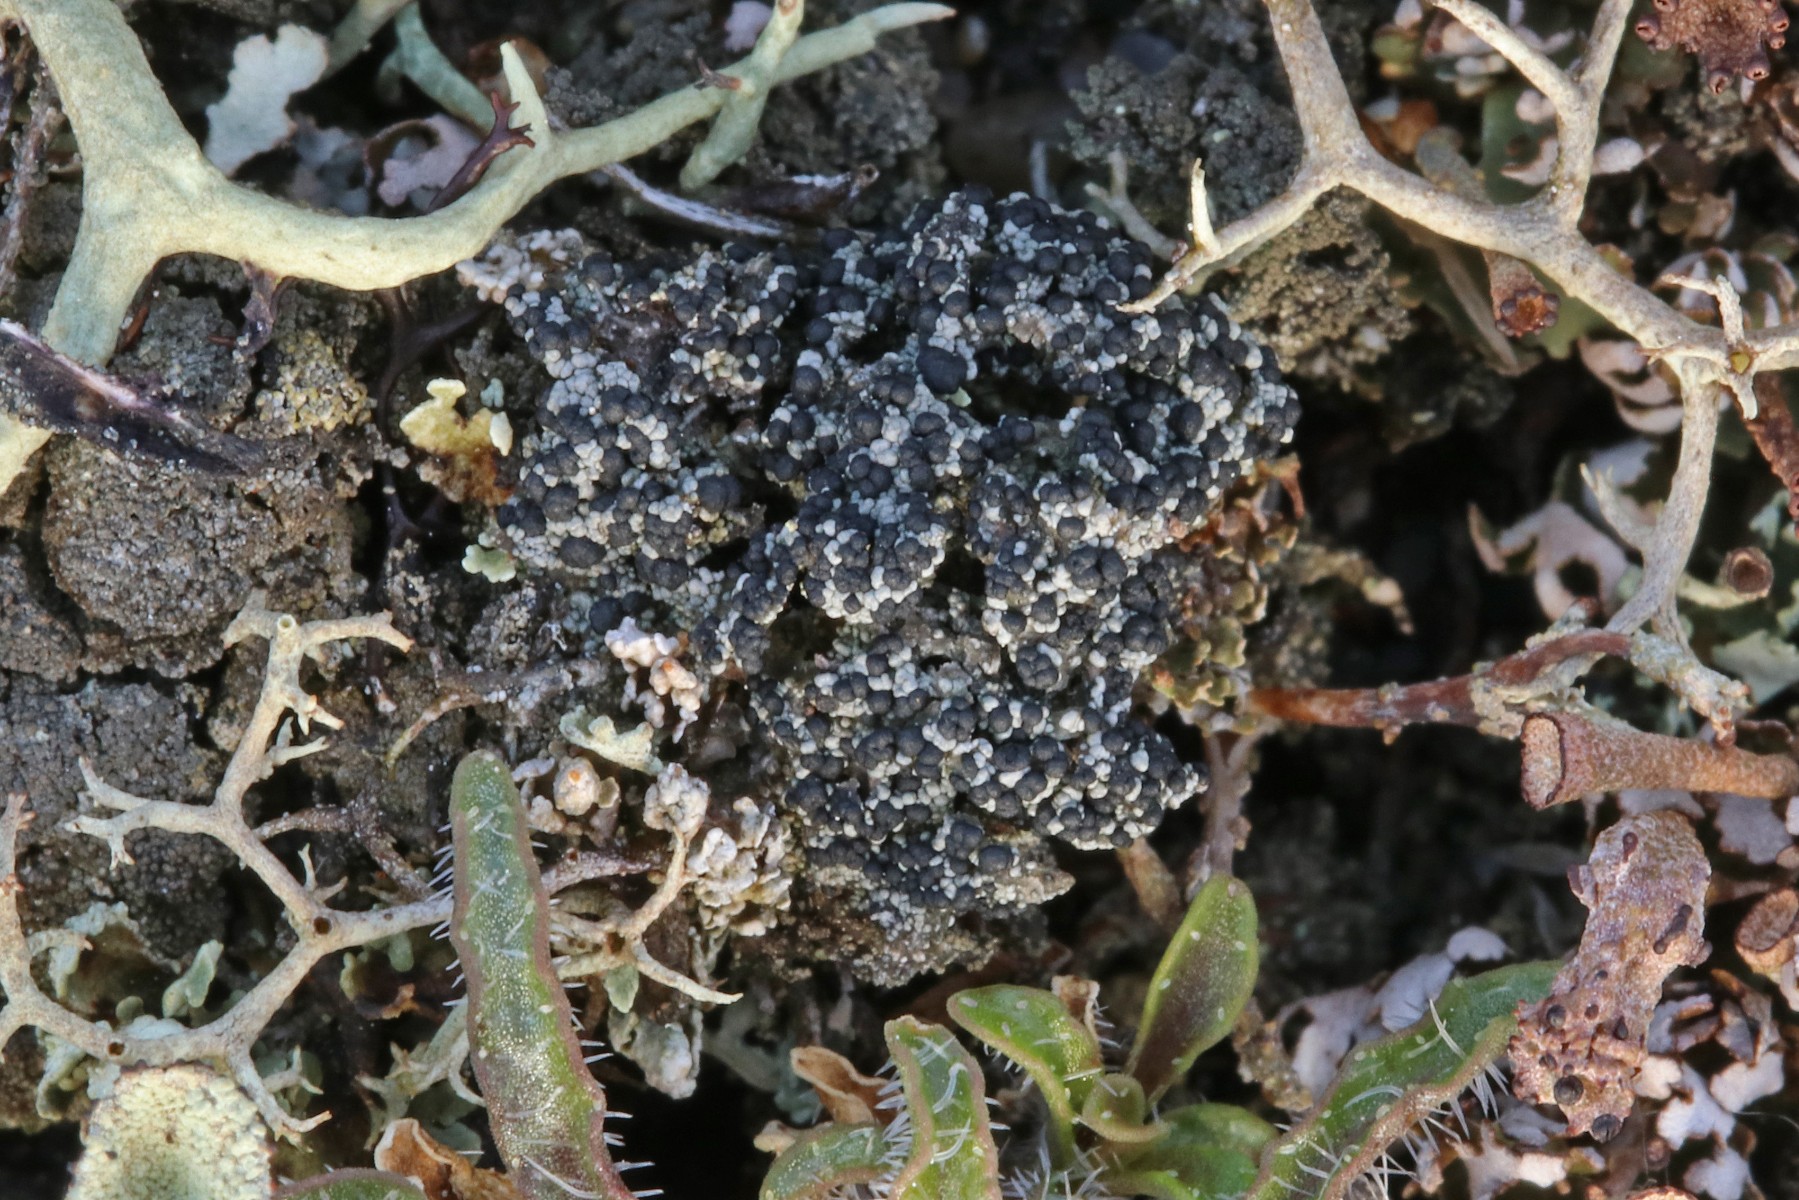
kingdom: Fungi
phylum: Ascomycota
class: Lecanoromycetes
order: Lecanorales
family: Byssolomataceae
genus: Micarea
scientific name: Micarea lignaria
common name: tørve-knaplav
